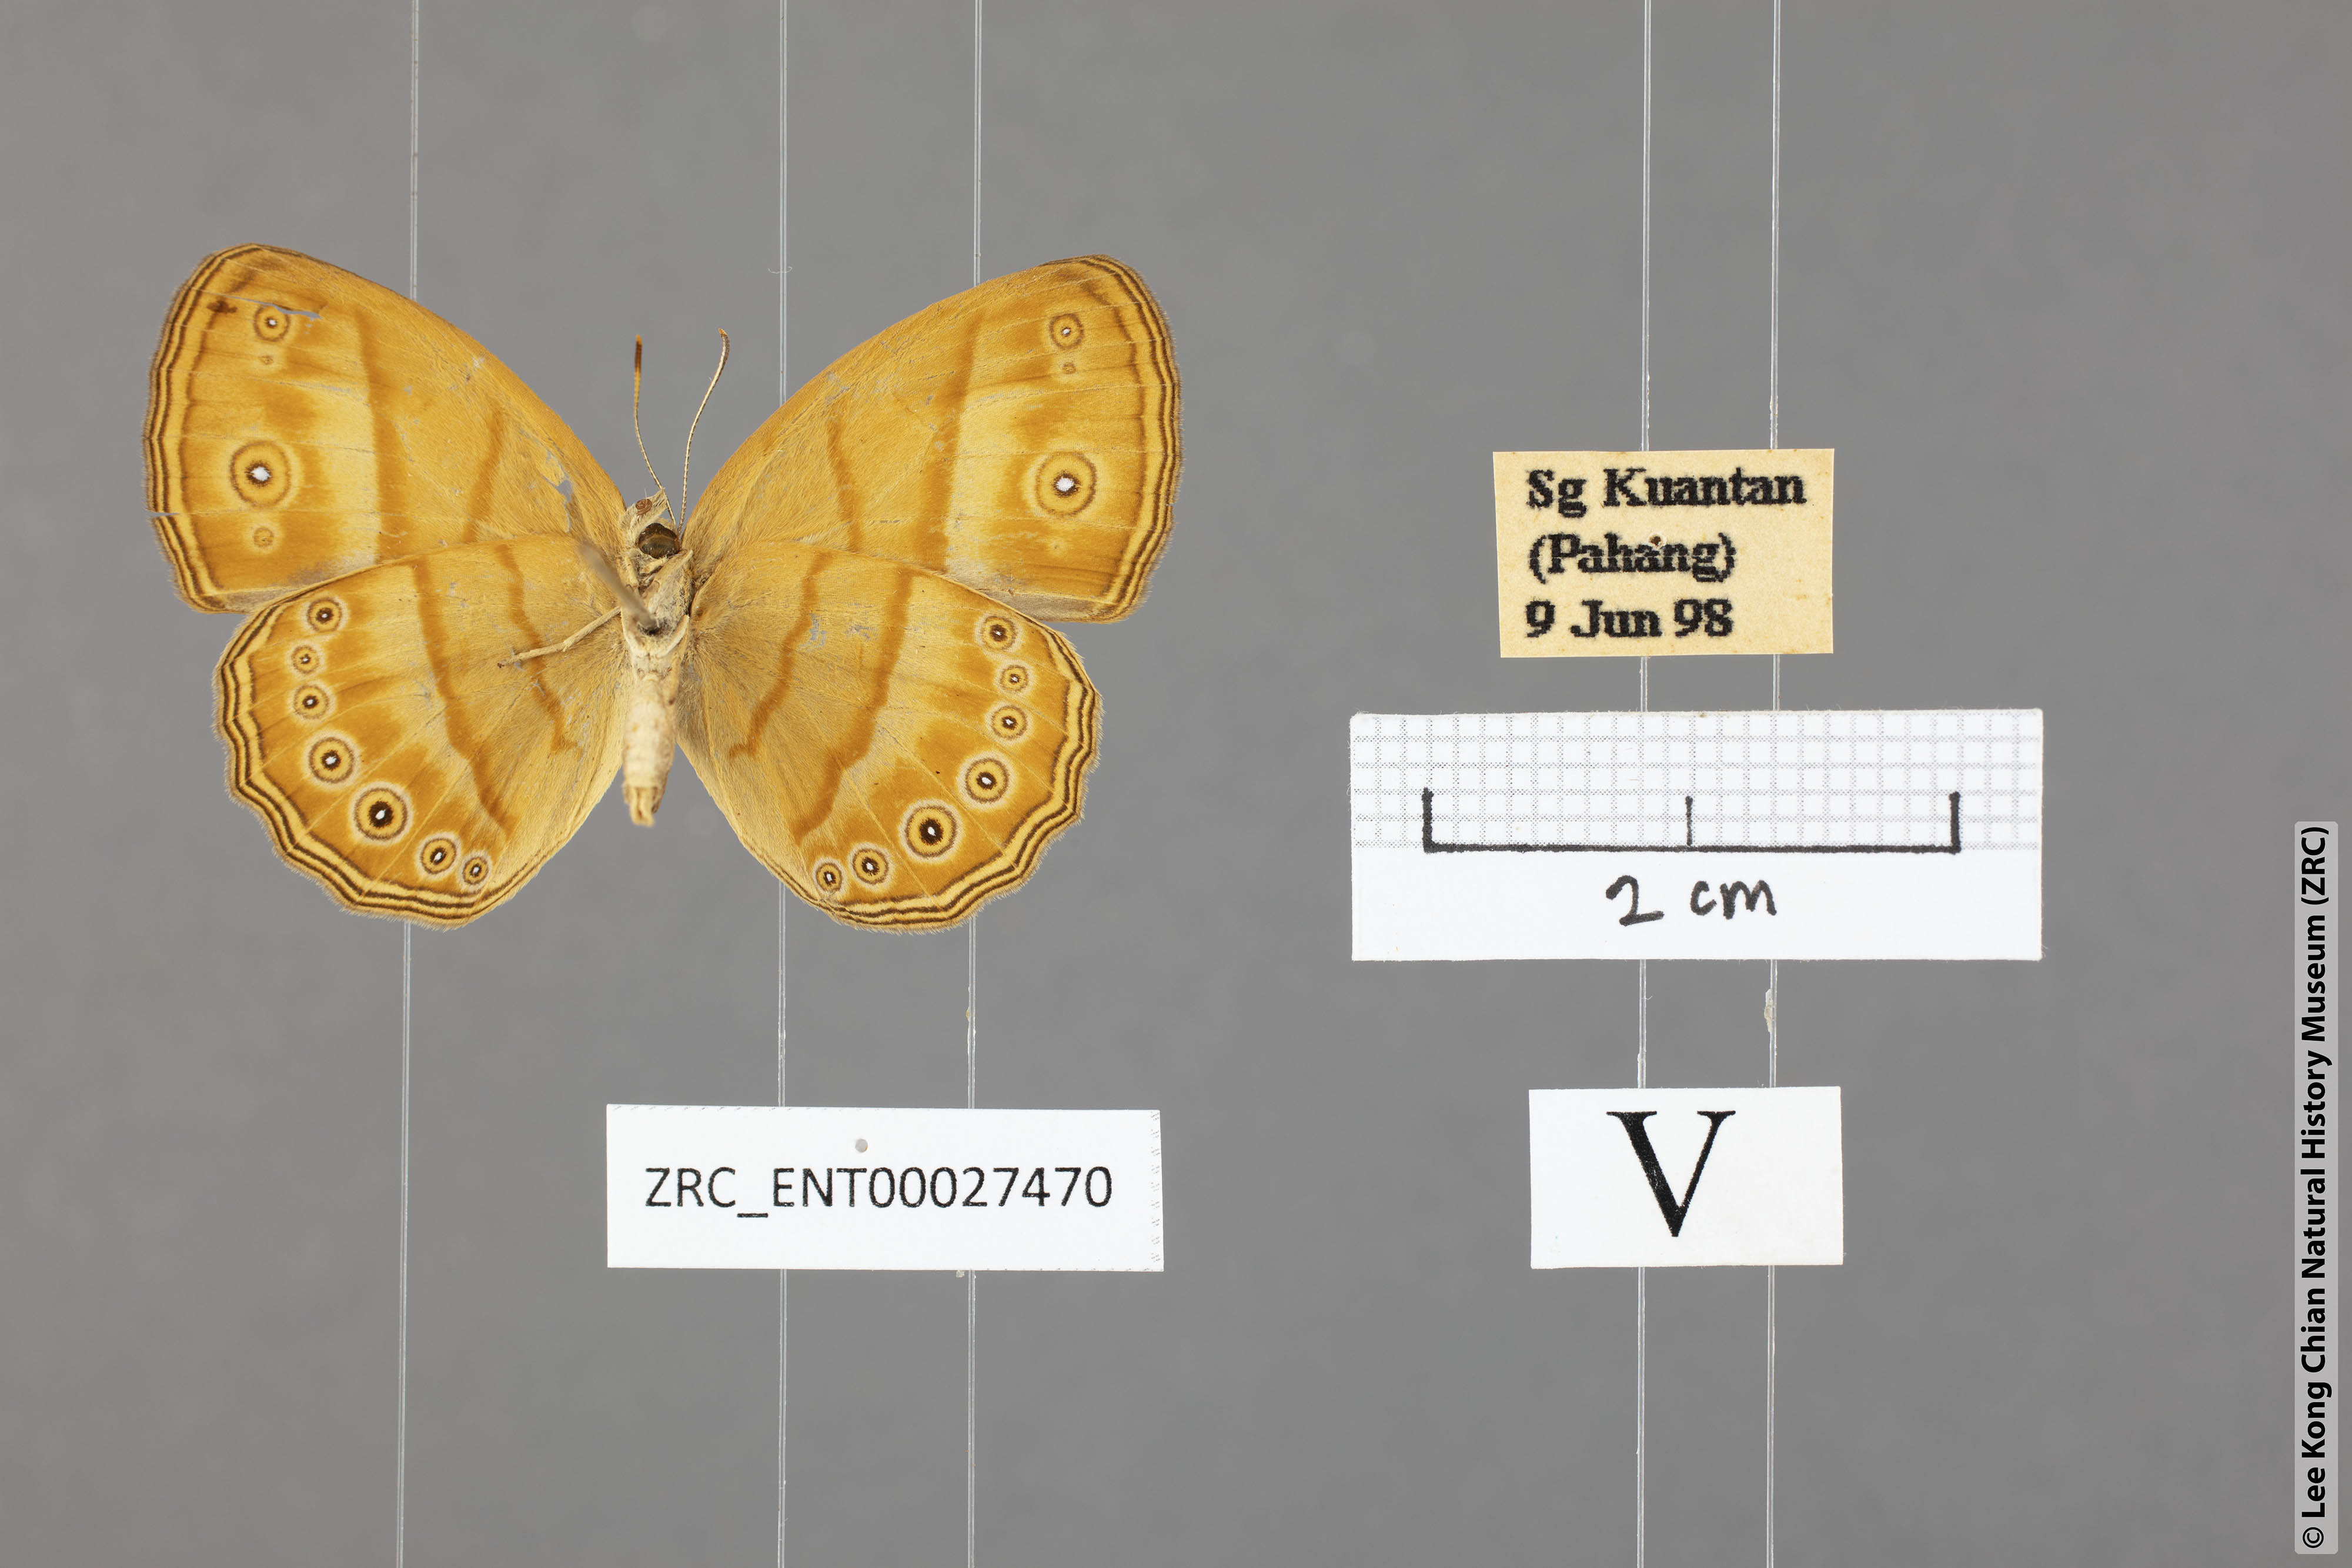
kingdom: Animalia
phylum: Arthropoda
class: Insecta
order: Lepidoptera
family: Nymphalidae
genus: Mycalesis
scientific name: Mycalesis anapita
